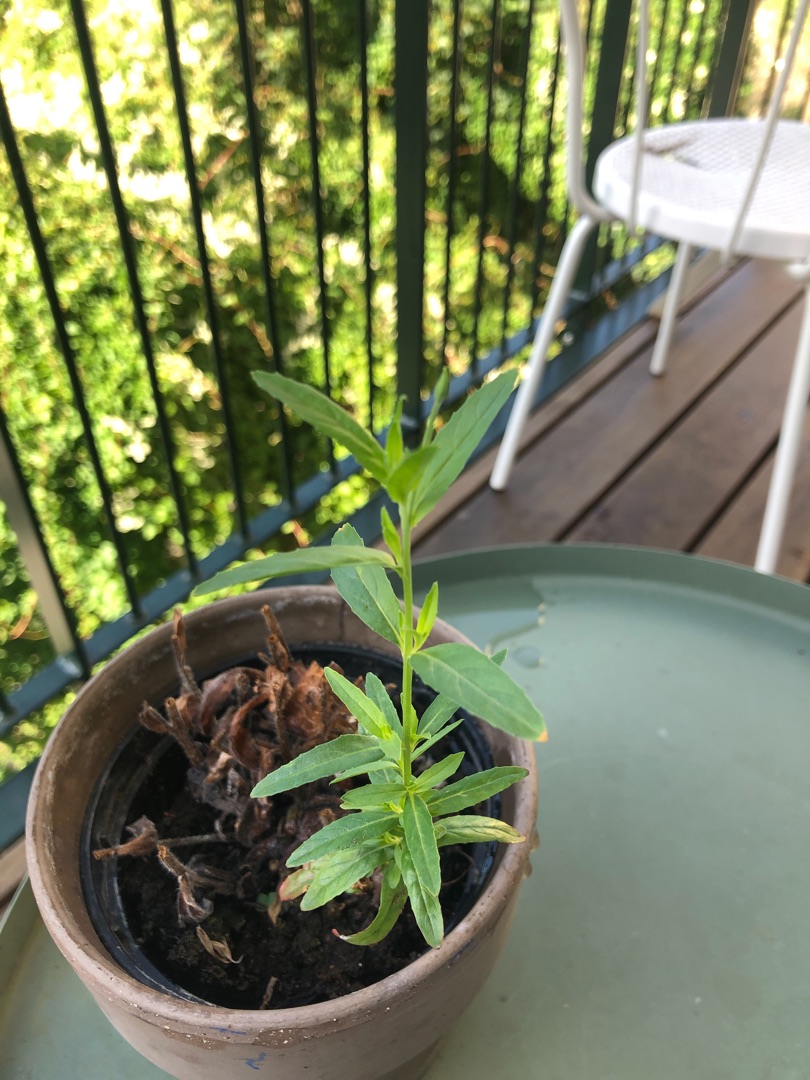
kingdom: Plantae
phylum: Tracheophyta
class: Magnoliopsida
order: Myrtales
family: Onagraceae
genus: Epilobium
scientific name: Epilobium
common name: Dueurtslægten
